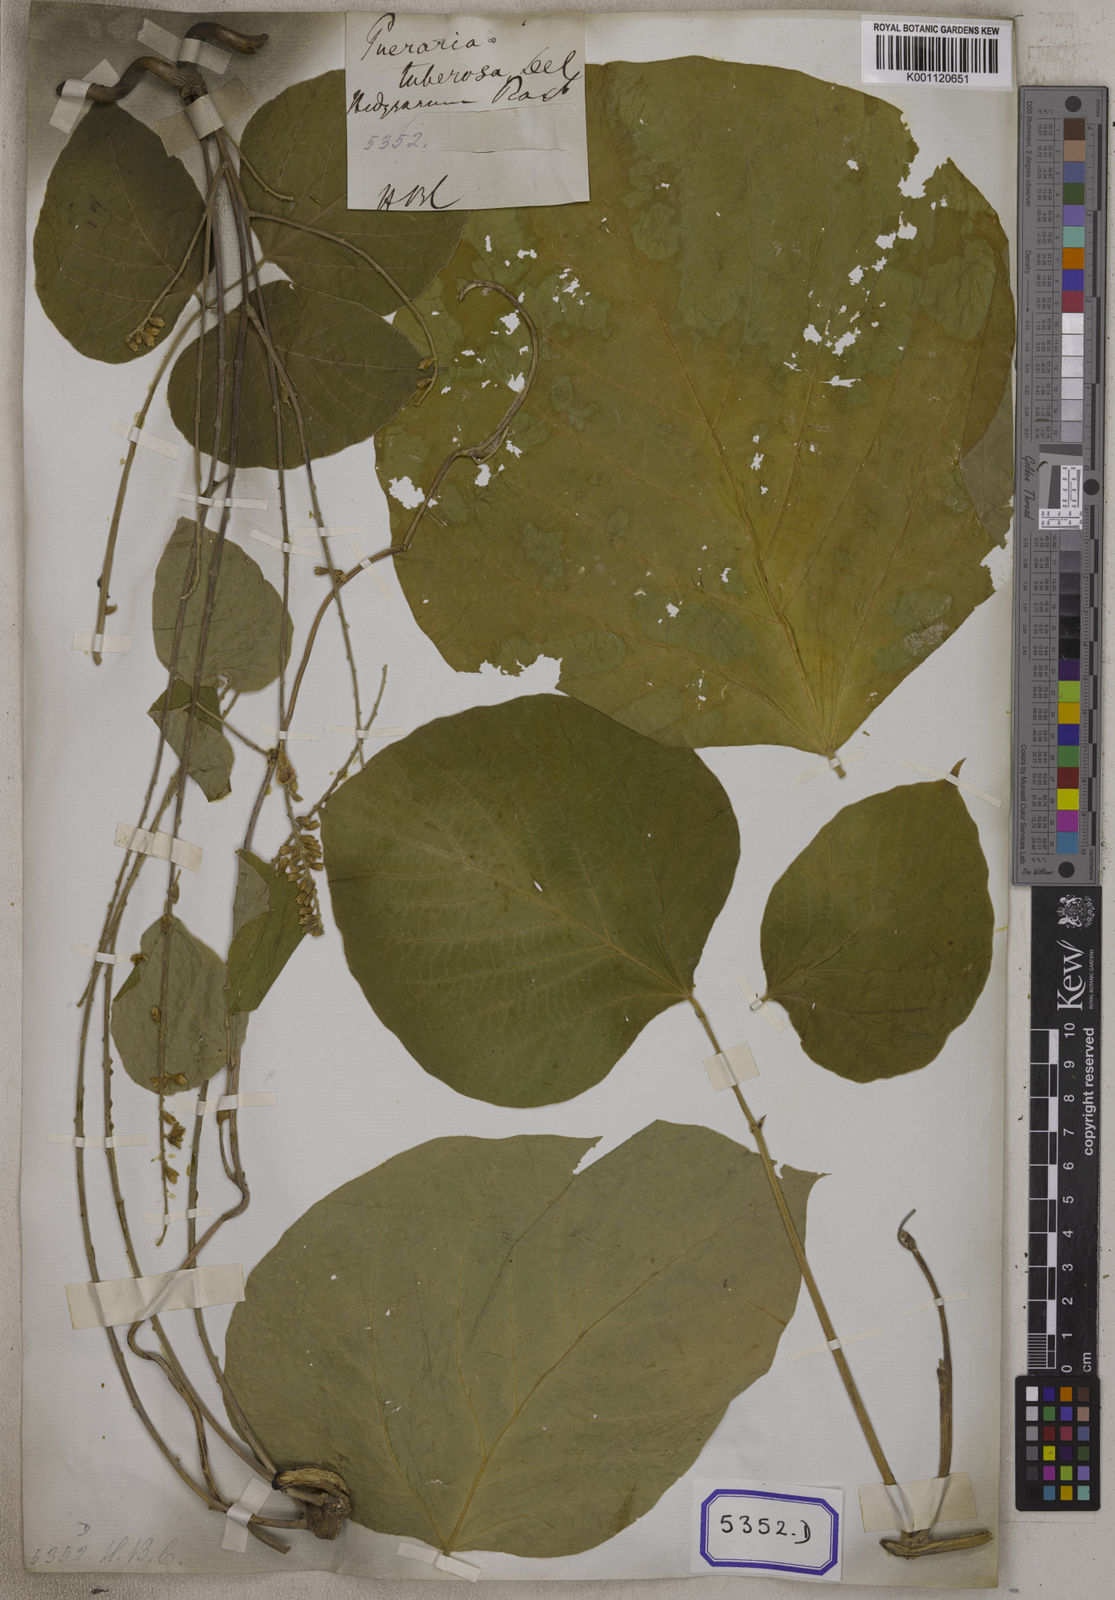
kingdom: Plantae
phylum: Tracheophyta
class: Magnoliopsida
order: Fabales
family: Fabaceae
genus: Pueraria
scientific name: Pueraria tuberosa
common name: Nepalese kudzu
